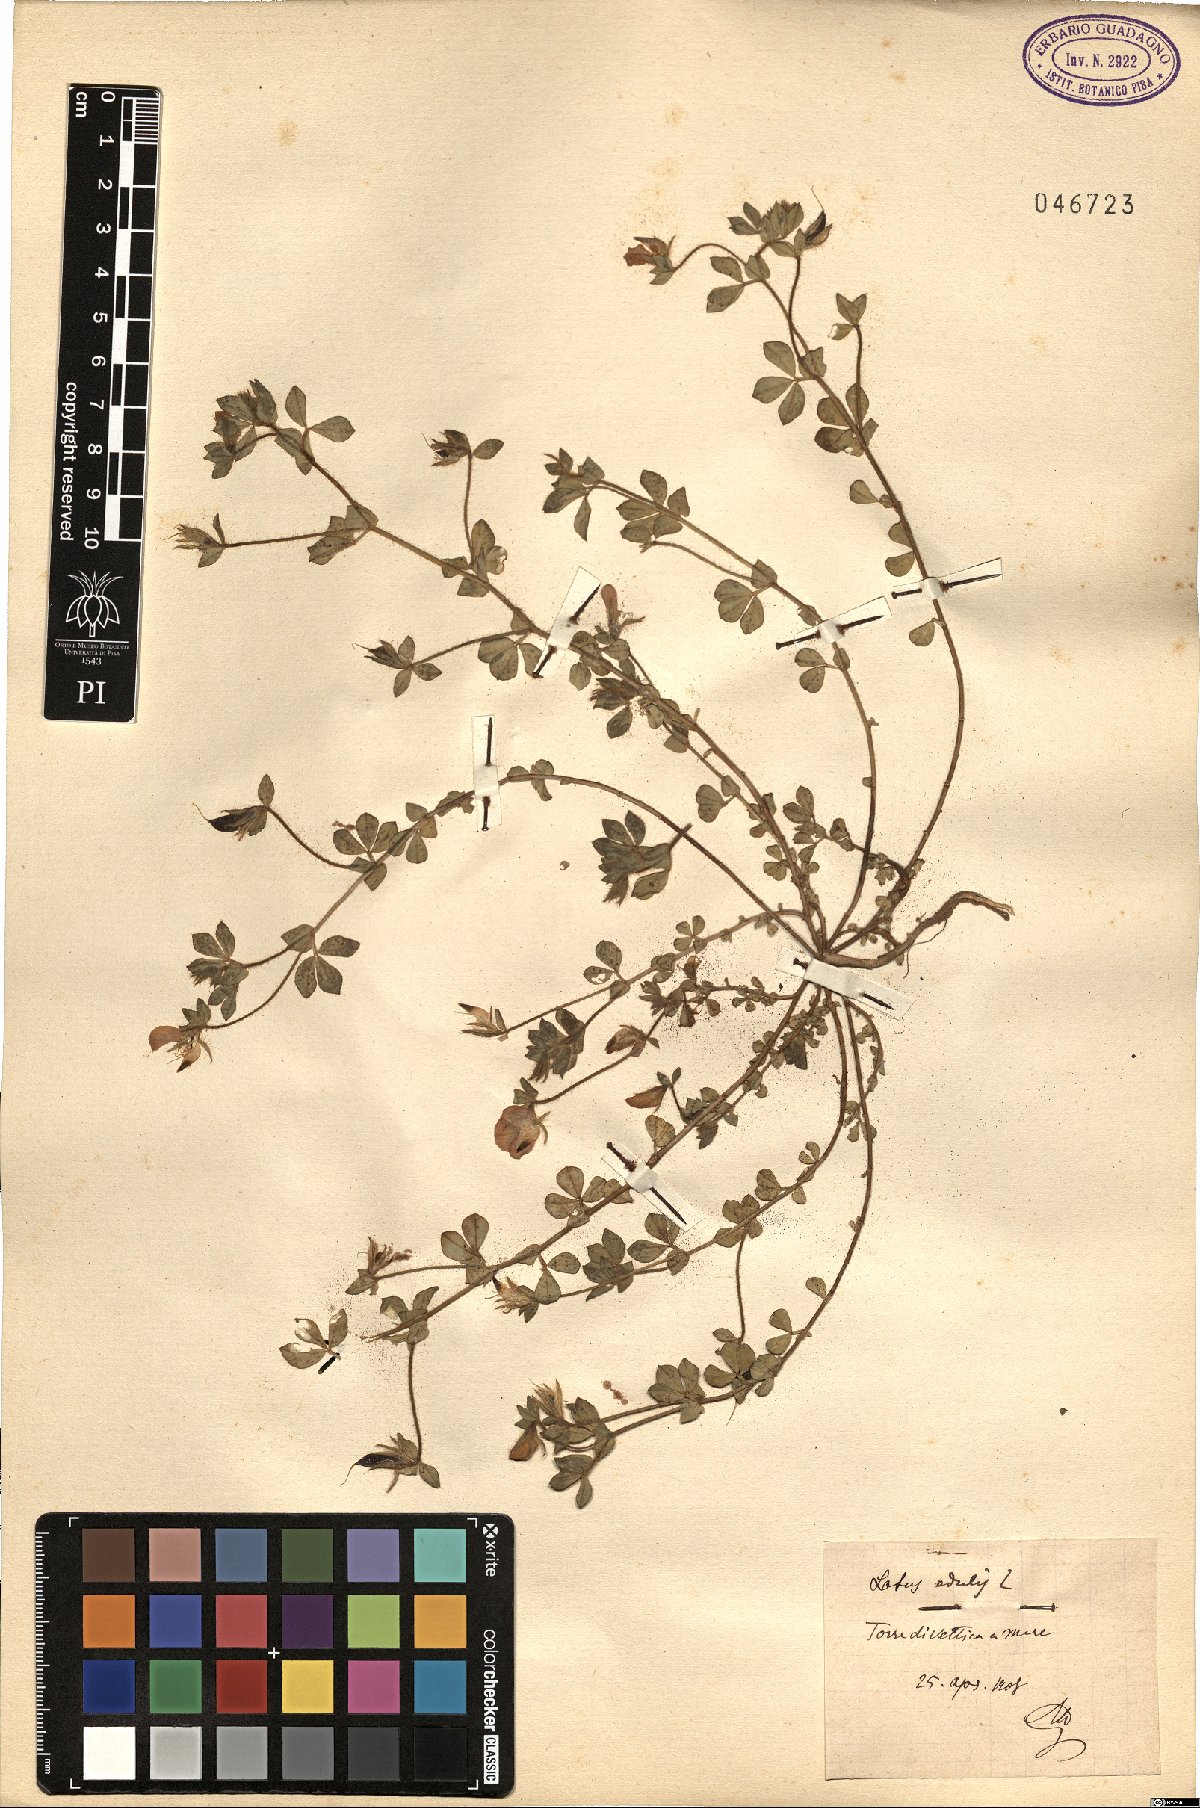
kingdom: Plantae
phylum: Tracheophyta
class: Magnoliopsida
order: Fabales
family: Fabaceae
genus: Lotus
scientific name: Lotus edulis
